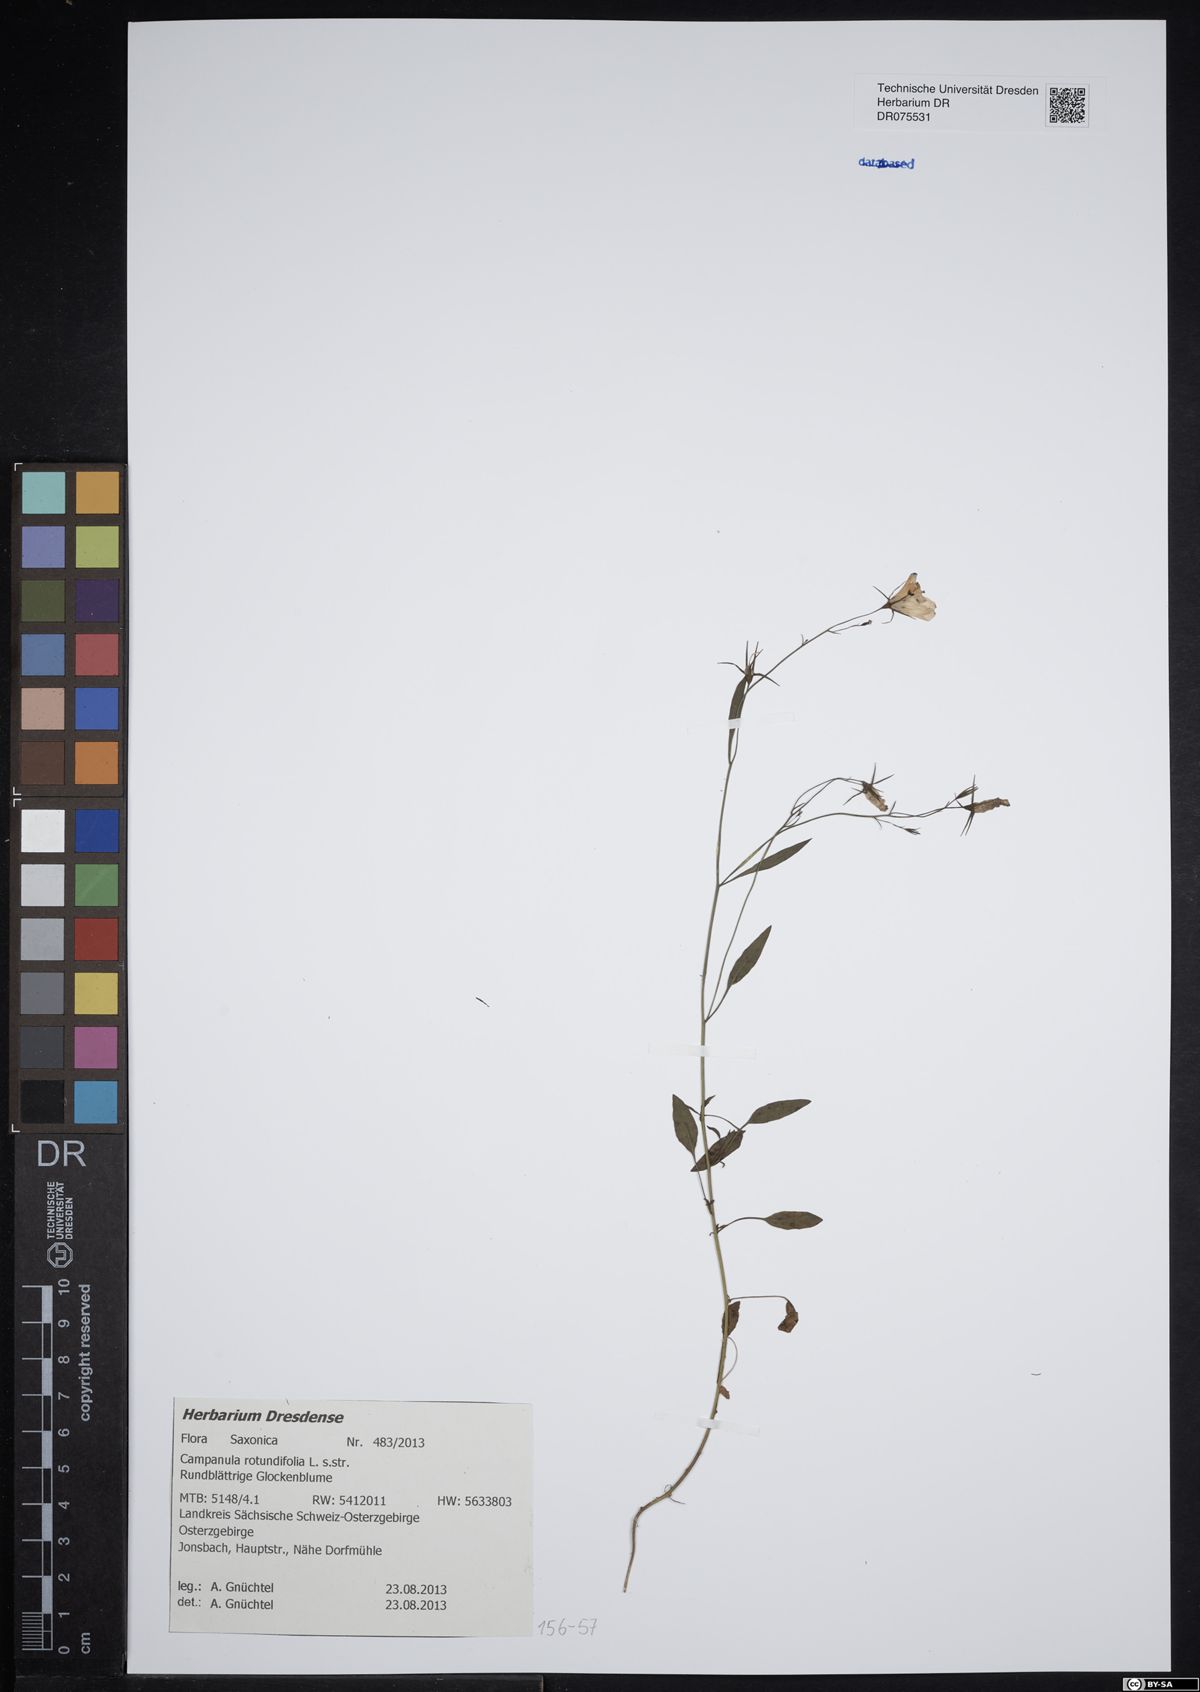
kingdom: Plantae
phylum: Tracheophyta
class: Magnoliopsida
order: Asterales
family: Campanulaceae
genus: Campanula
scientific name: Campanula rotundifolia
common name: Harebell
